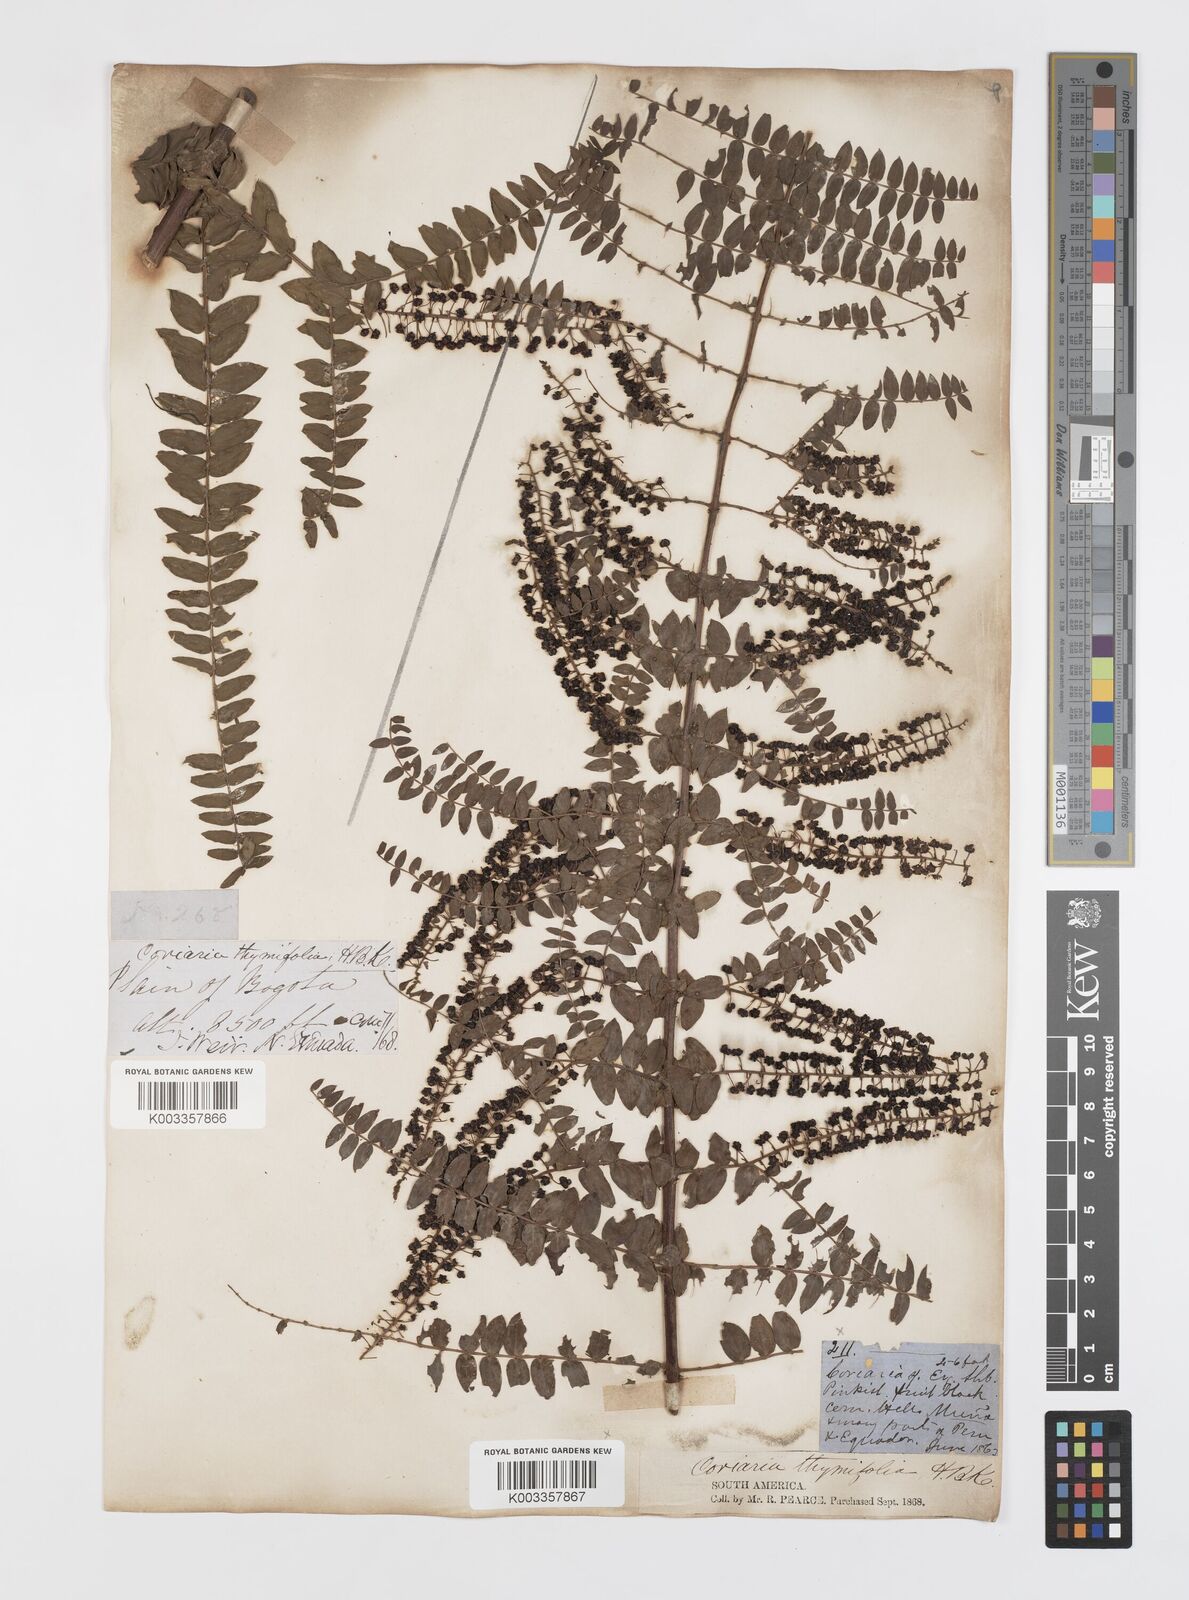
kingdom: Plantae
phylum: Tracheophyta
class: Magnoliopsida
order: Cucurbitales
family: Coriariaceae
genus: Coriaria
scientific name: Coriaria microphylla
